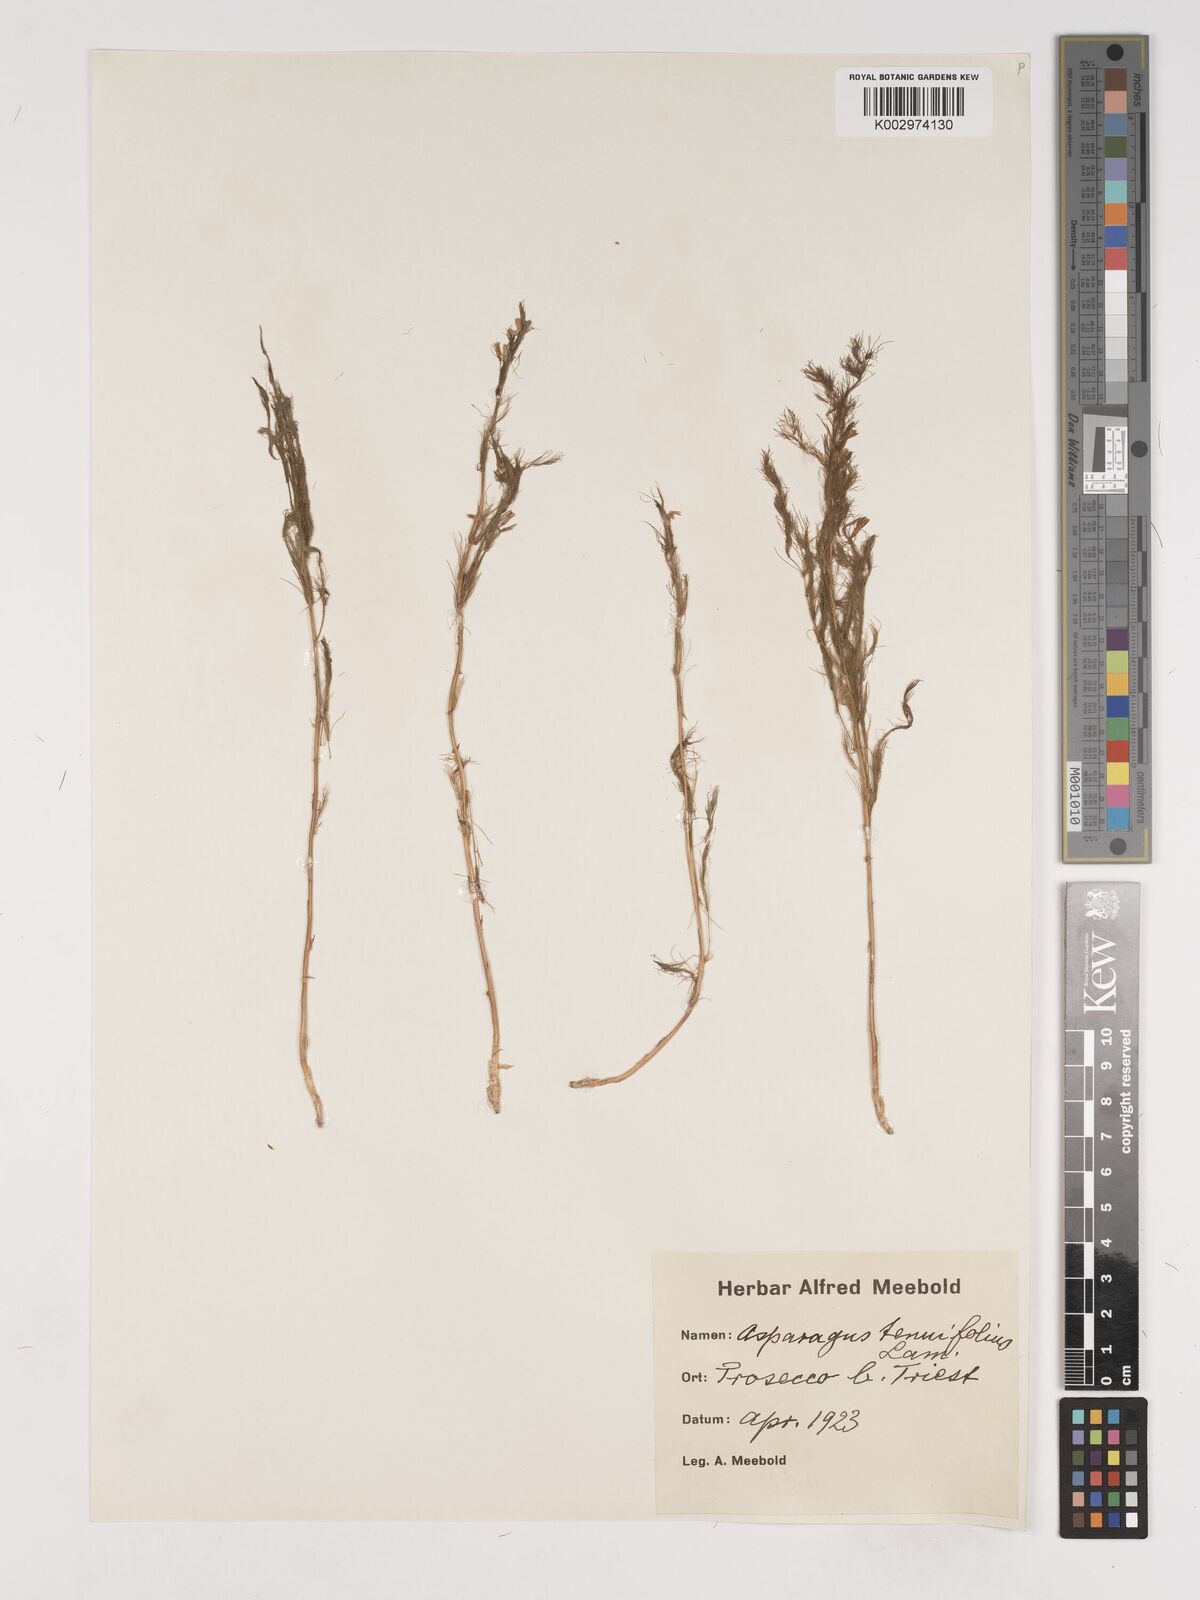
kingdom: Plantae
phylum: Tracheophyta
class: Liliopsida
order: Asparagales
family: Asparagaceae
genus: Asparagus
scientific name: Asparagus tenuifolius
